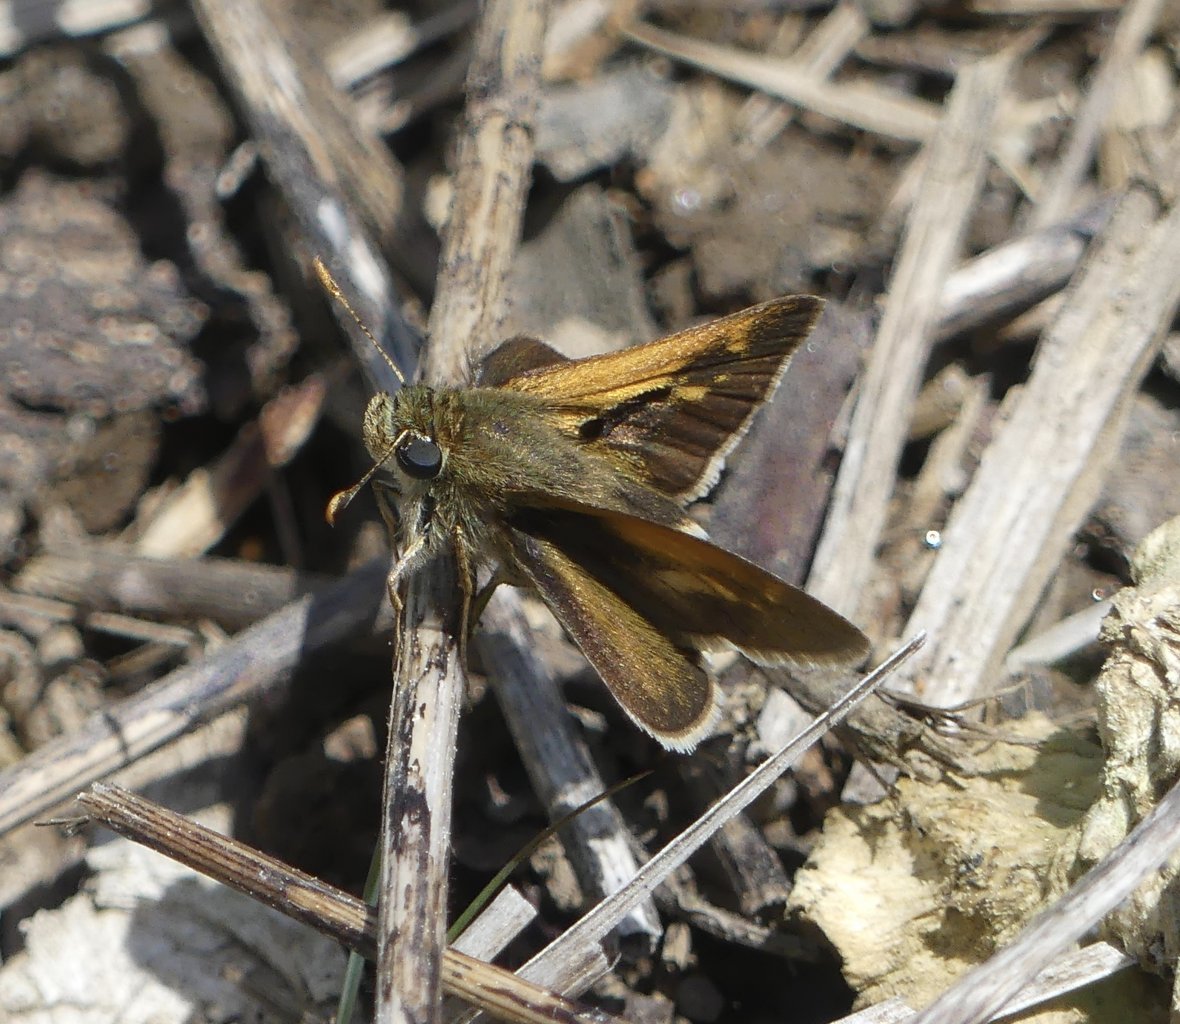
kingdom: Animalia
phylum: Arthropoda
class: Insecta
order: Lepidoptera
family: Hesperiidae
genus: Polites
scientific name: Polites themistocles
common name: Tawny-edged Skipper
